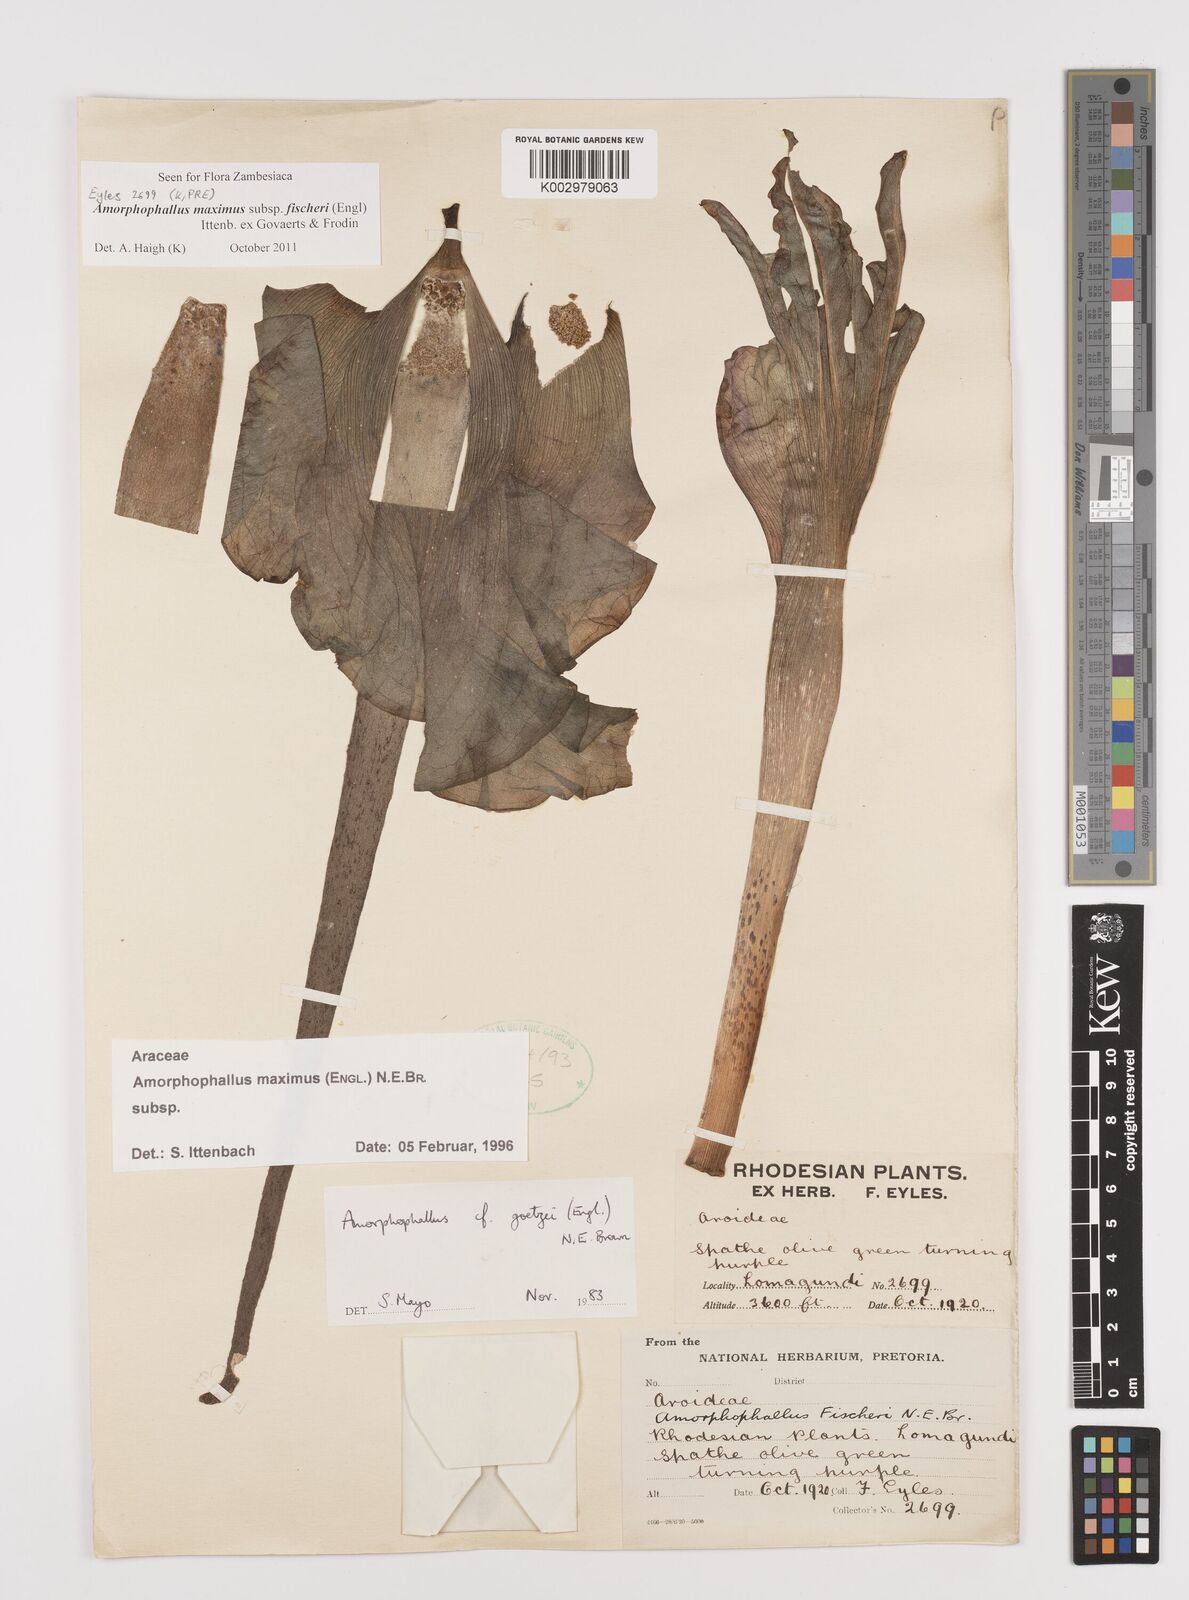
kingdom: Plantae
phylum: Tracheophyta
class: Liliopsida
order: Alismatales
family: Araceae
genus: Amorphophallus
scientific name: Amorphophallus maximus
